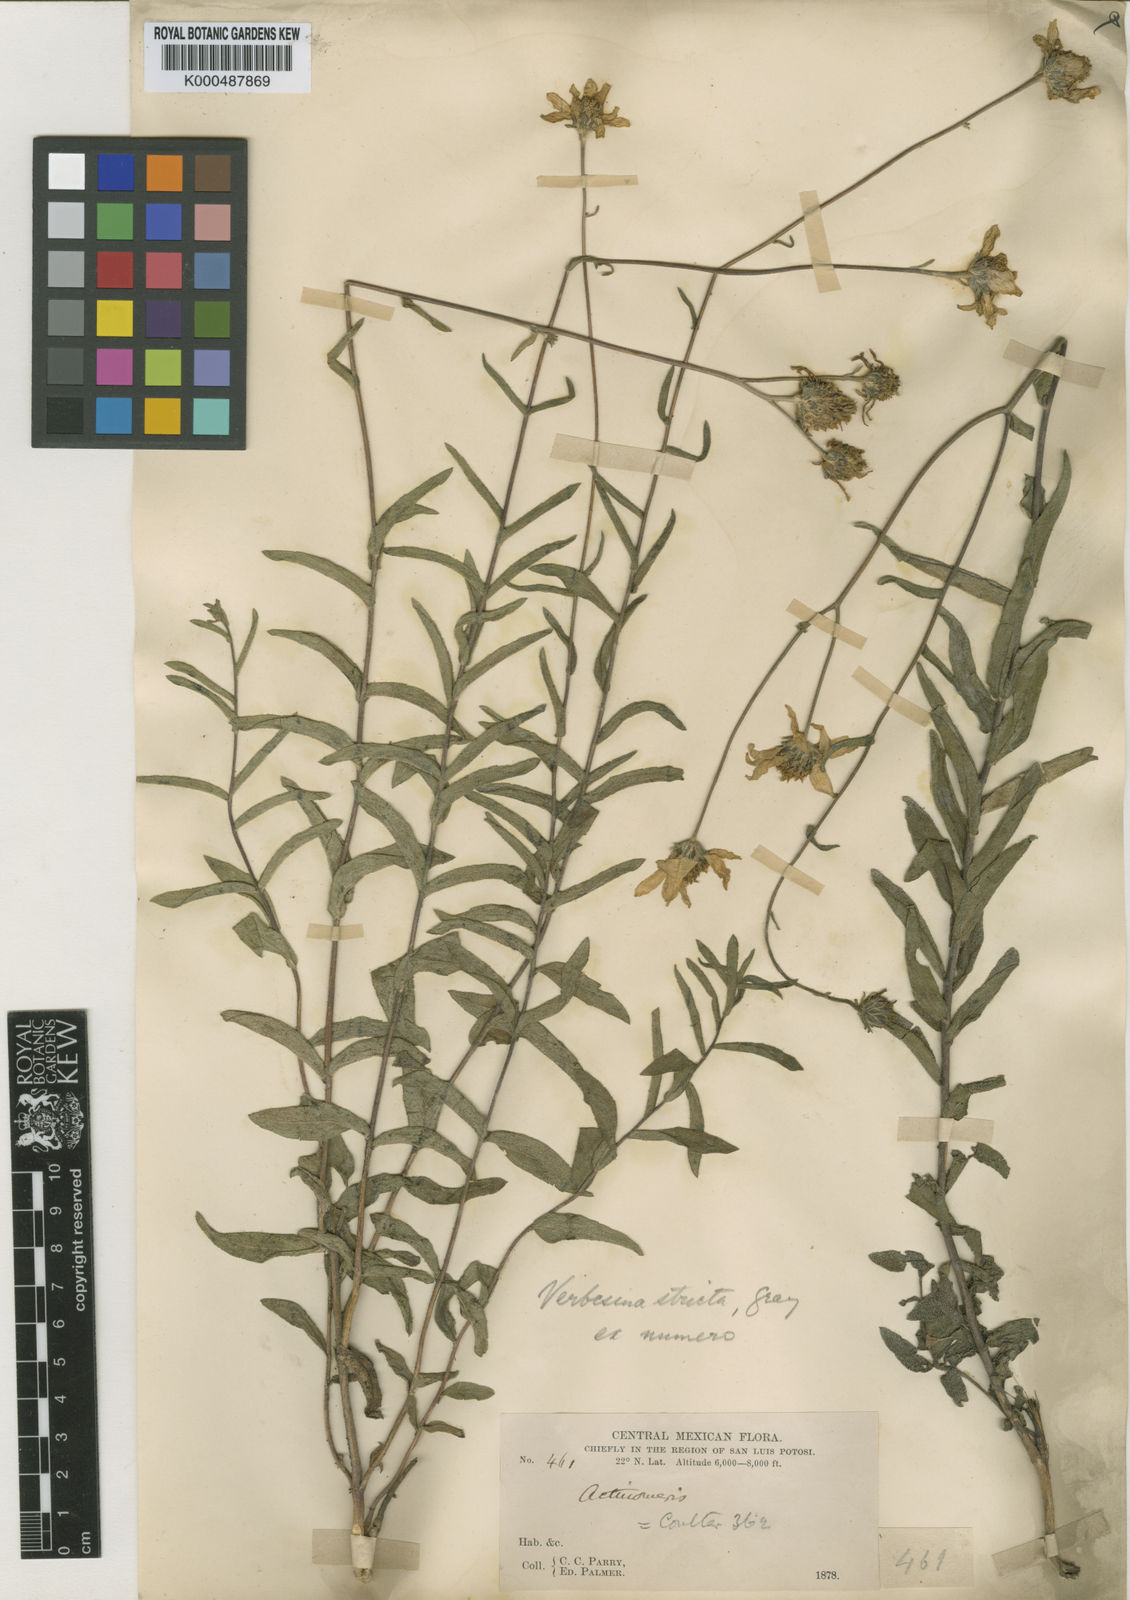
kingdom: Plantae
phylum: Tracheophyta
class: Magnoliopsida
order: Asterales
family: Asteraceae
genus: Verbesina
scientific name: Verbesina parviflora
